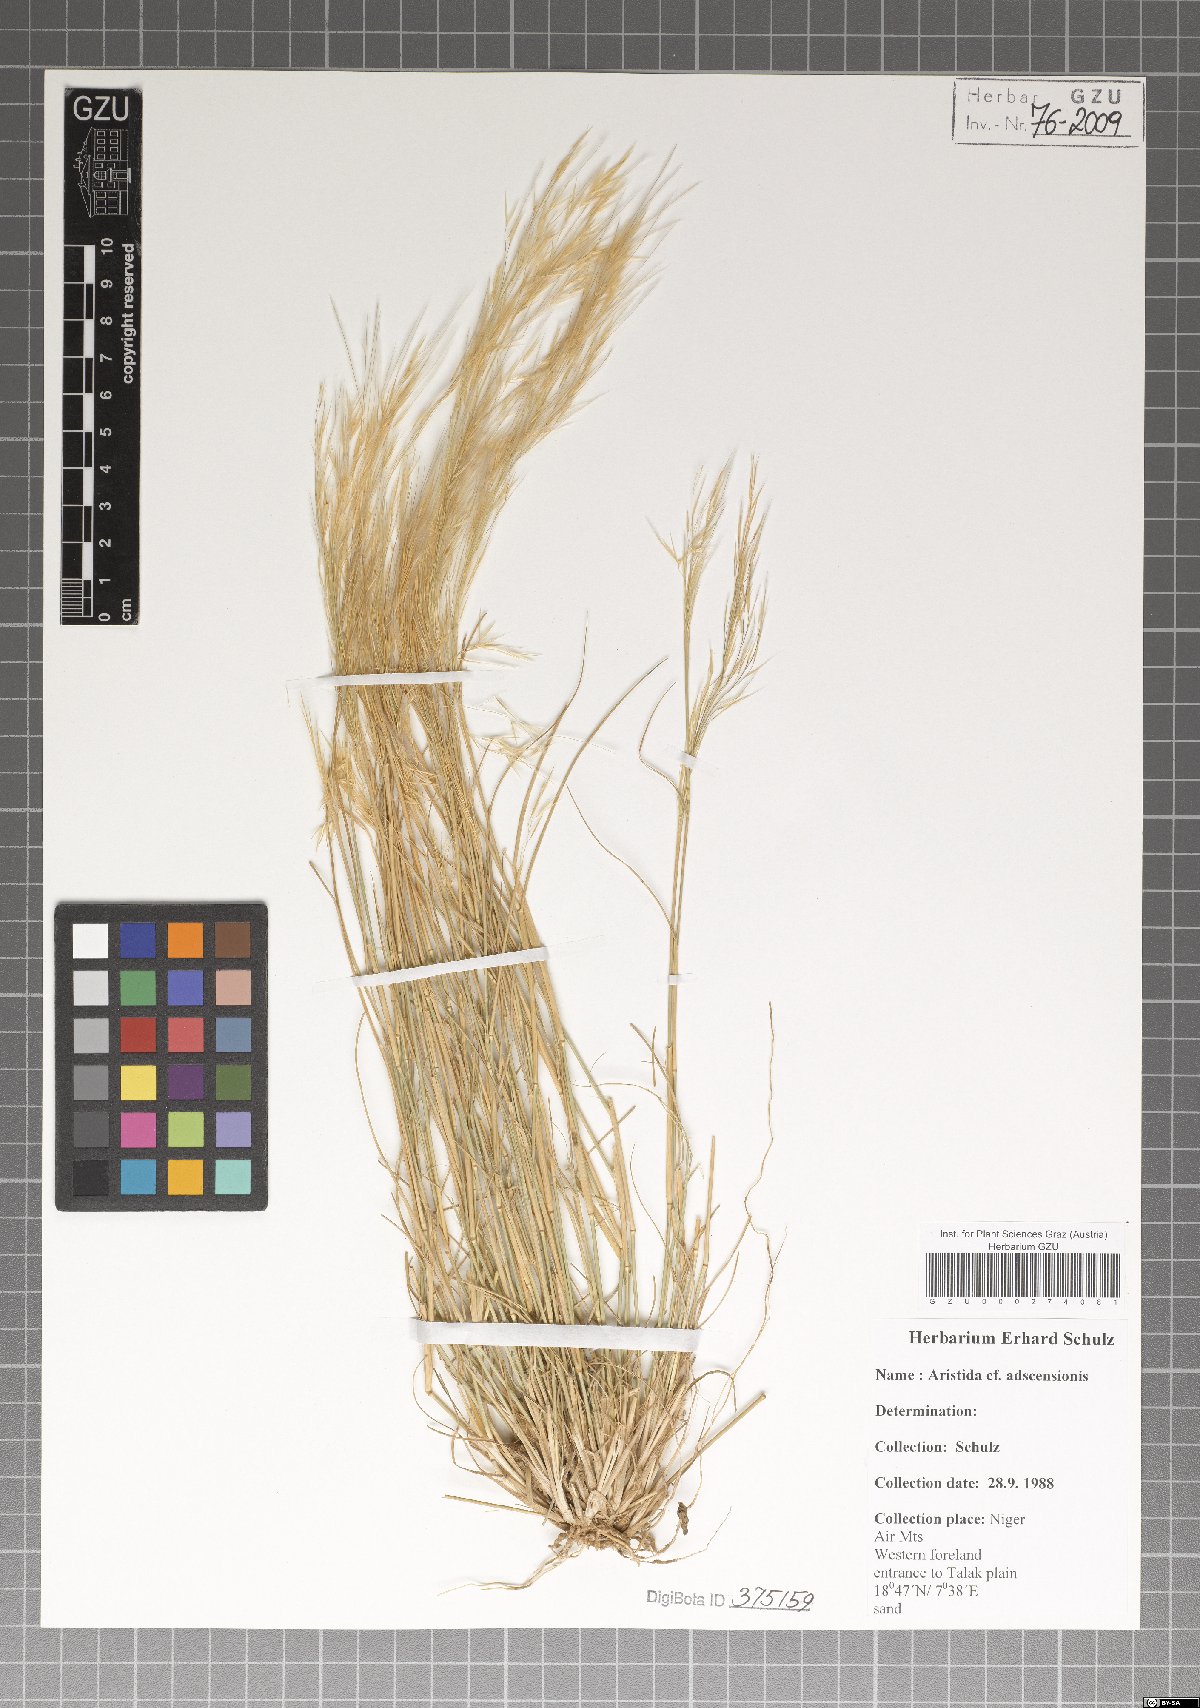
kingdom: Plantae
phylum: Tracheophyta
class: Liliopsida
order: Poales
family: Poaceae
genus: Aristida
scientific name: Aristida adscensionis
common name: Sixweeks threeawn
